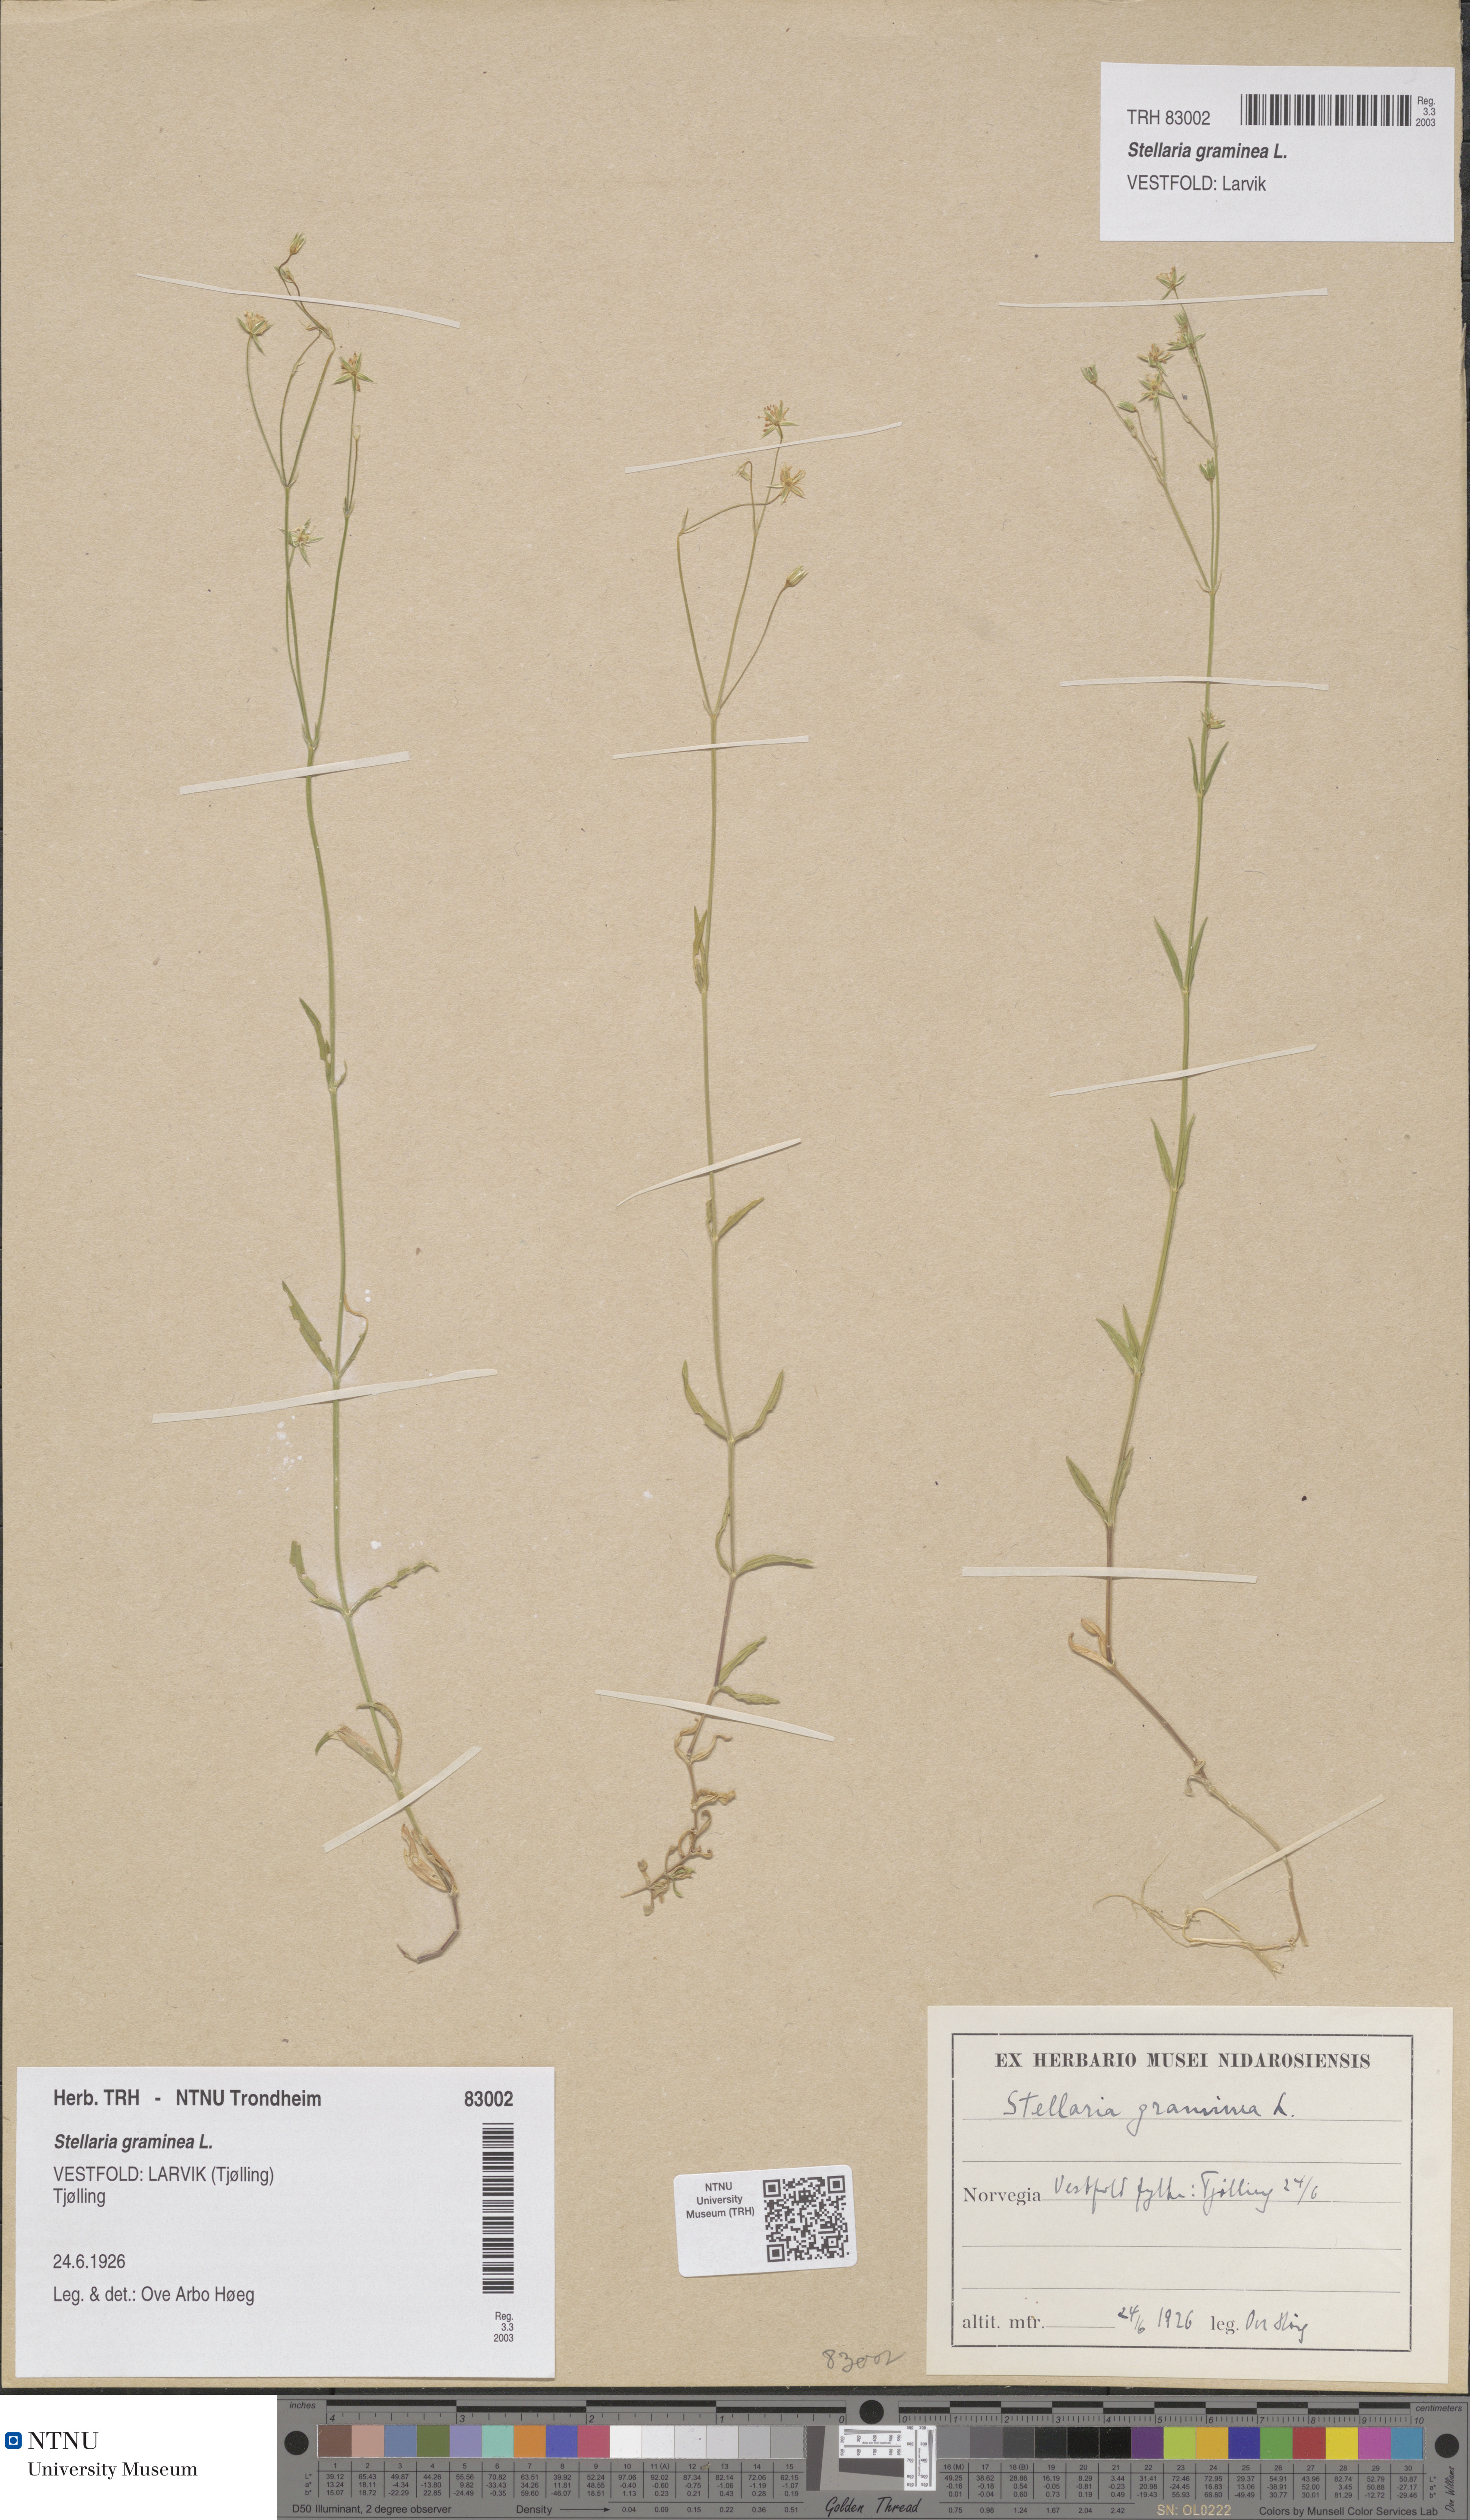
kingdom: Plantae
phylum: Tracheophyta
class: Magnoliopsida
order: Caryophyllales
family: Caryophyllaceae
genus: Stellaria
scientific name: Stellaria graminea
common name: Grass-like starwort
